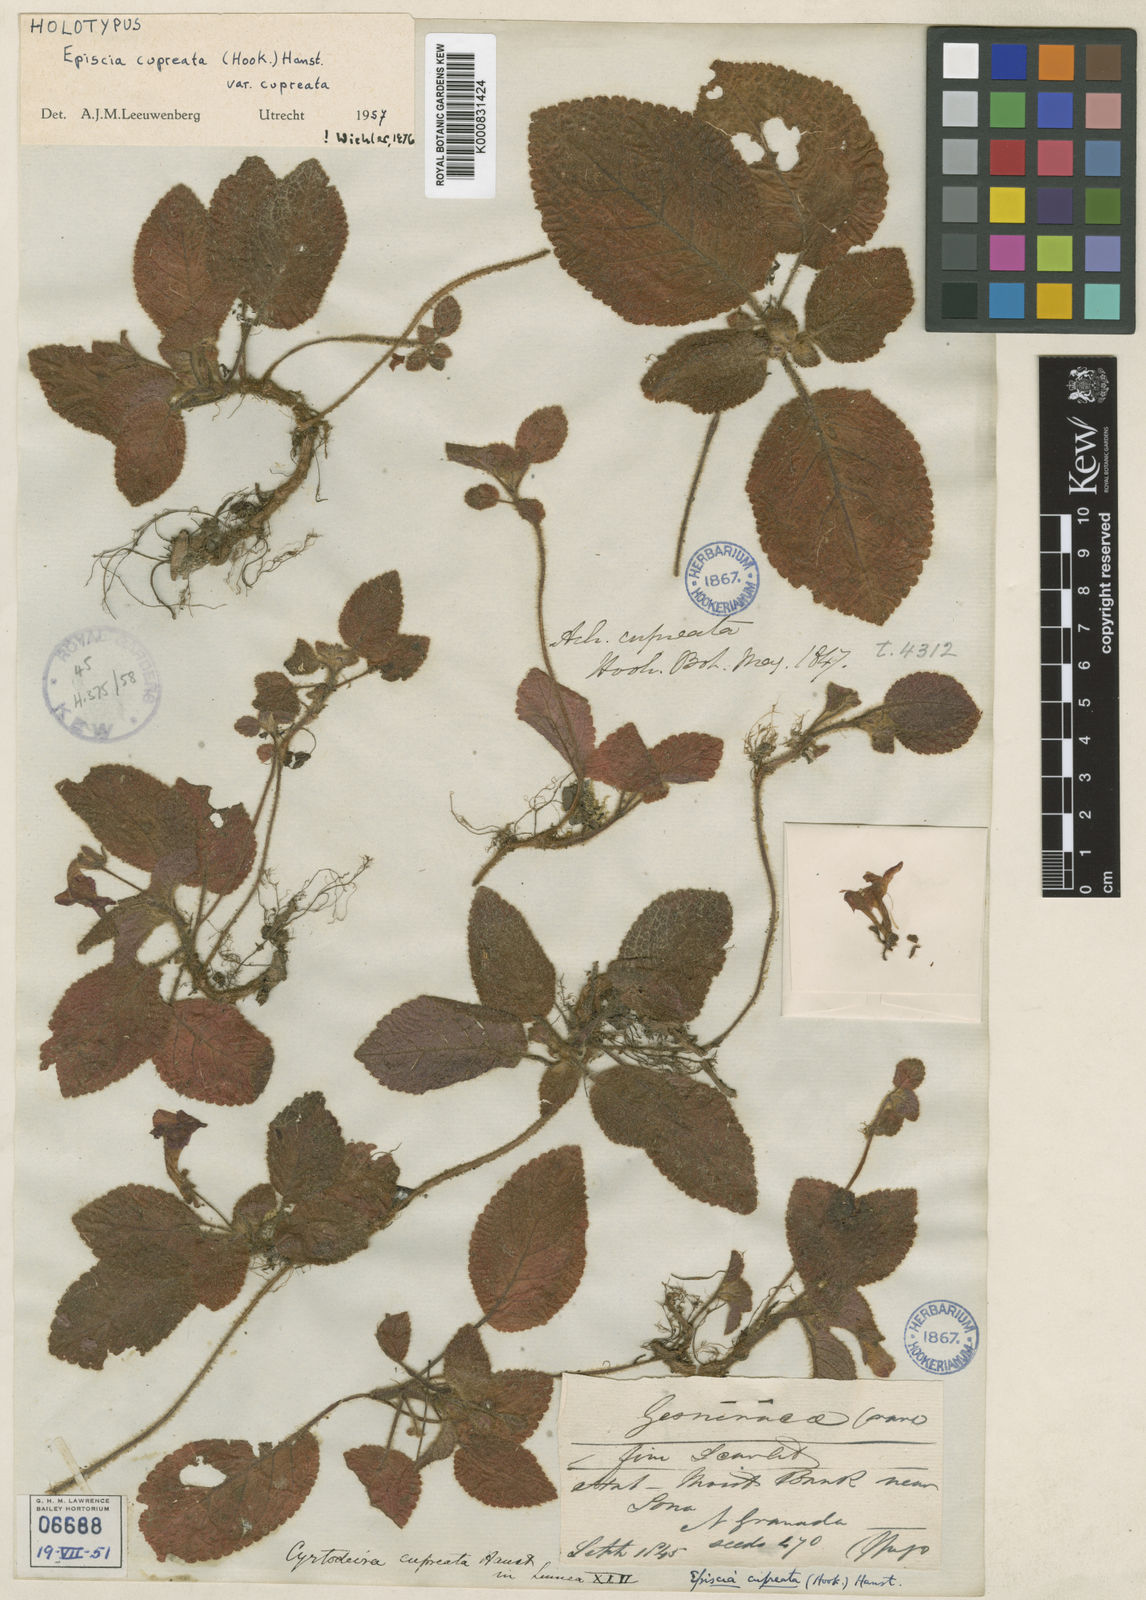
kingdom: Plantae
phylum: Tracheophyta
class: Magnoliopsida
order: Lamiales
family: Gesneriaceae
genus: Episcia
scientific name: Episcia cupreata
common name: Flame-violet
